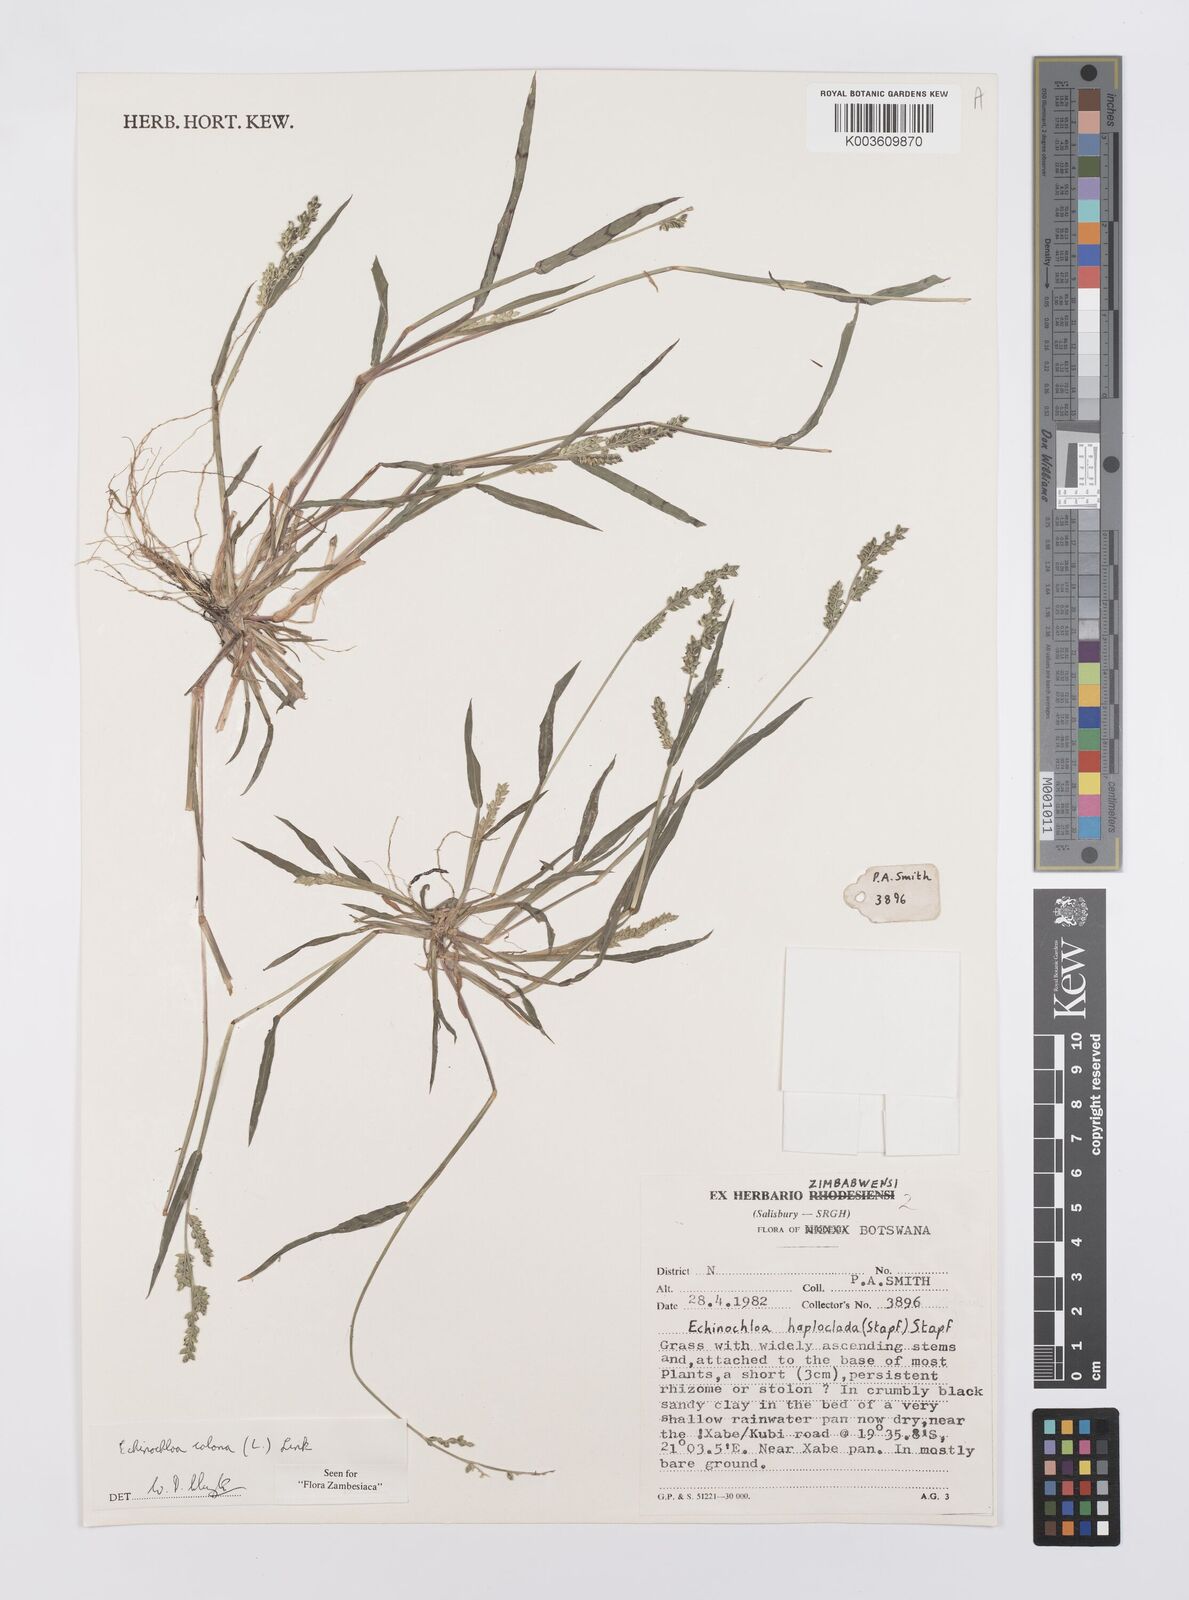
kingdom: Plantae
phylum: Tracheophyta
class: Liliopsida
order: Poales
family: Poaceae
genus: Echinochloa
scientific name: Echinochloa colonum
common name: Jungle rice
